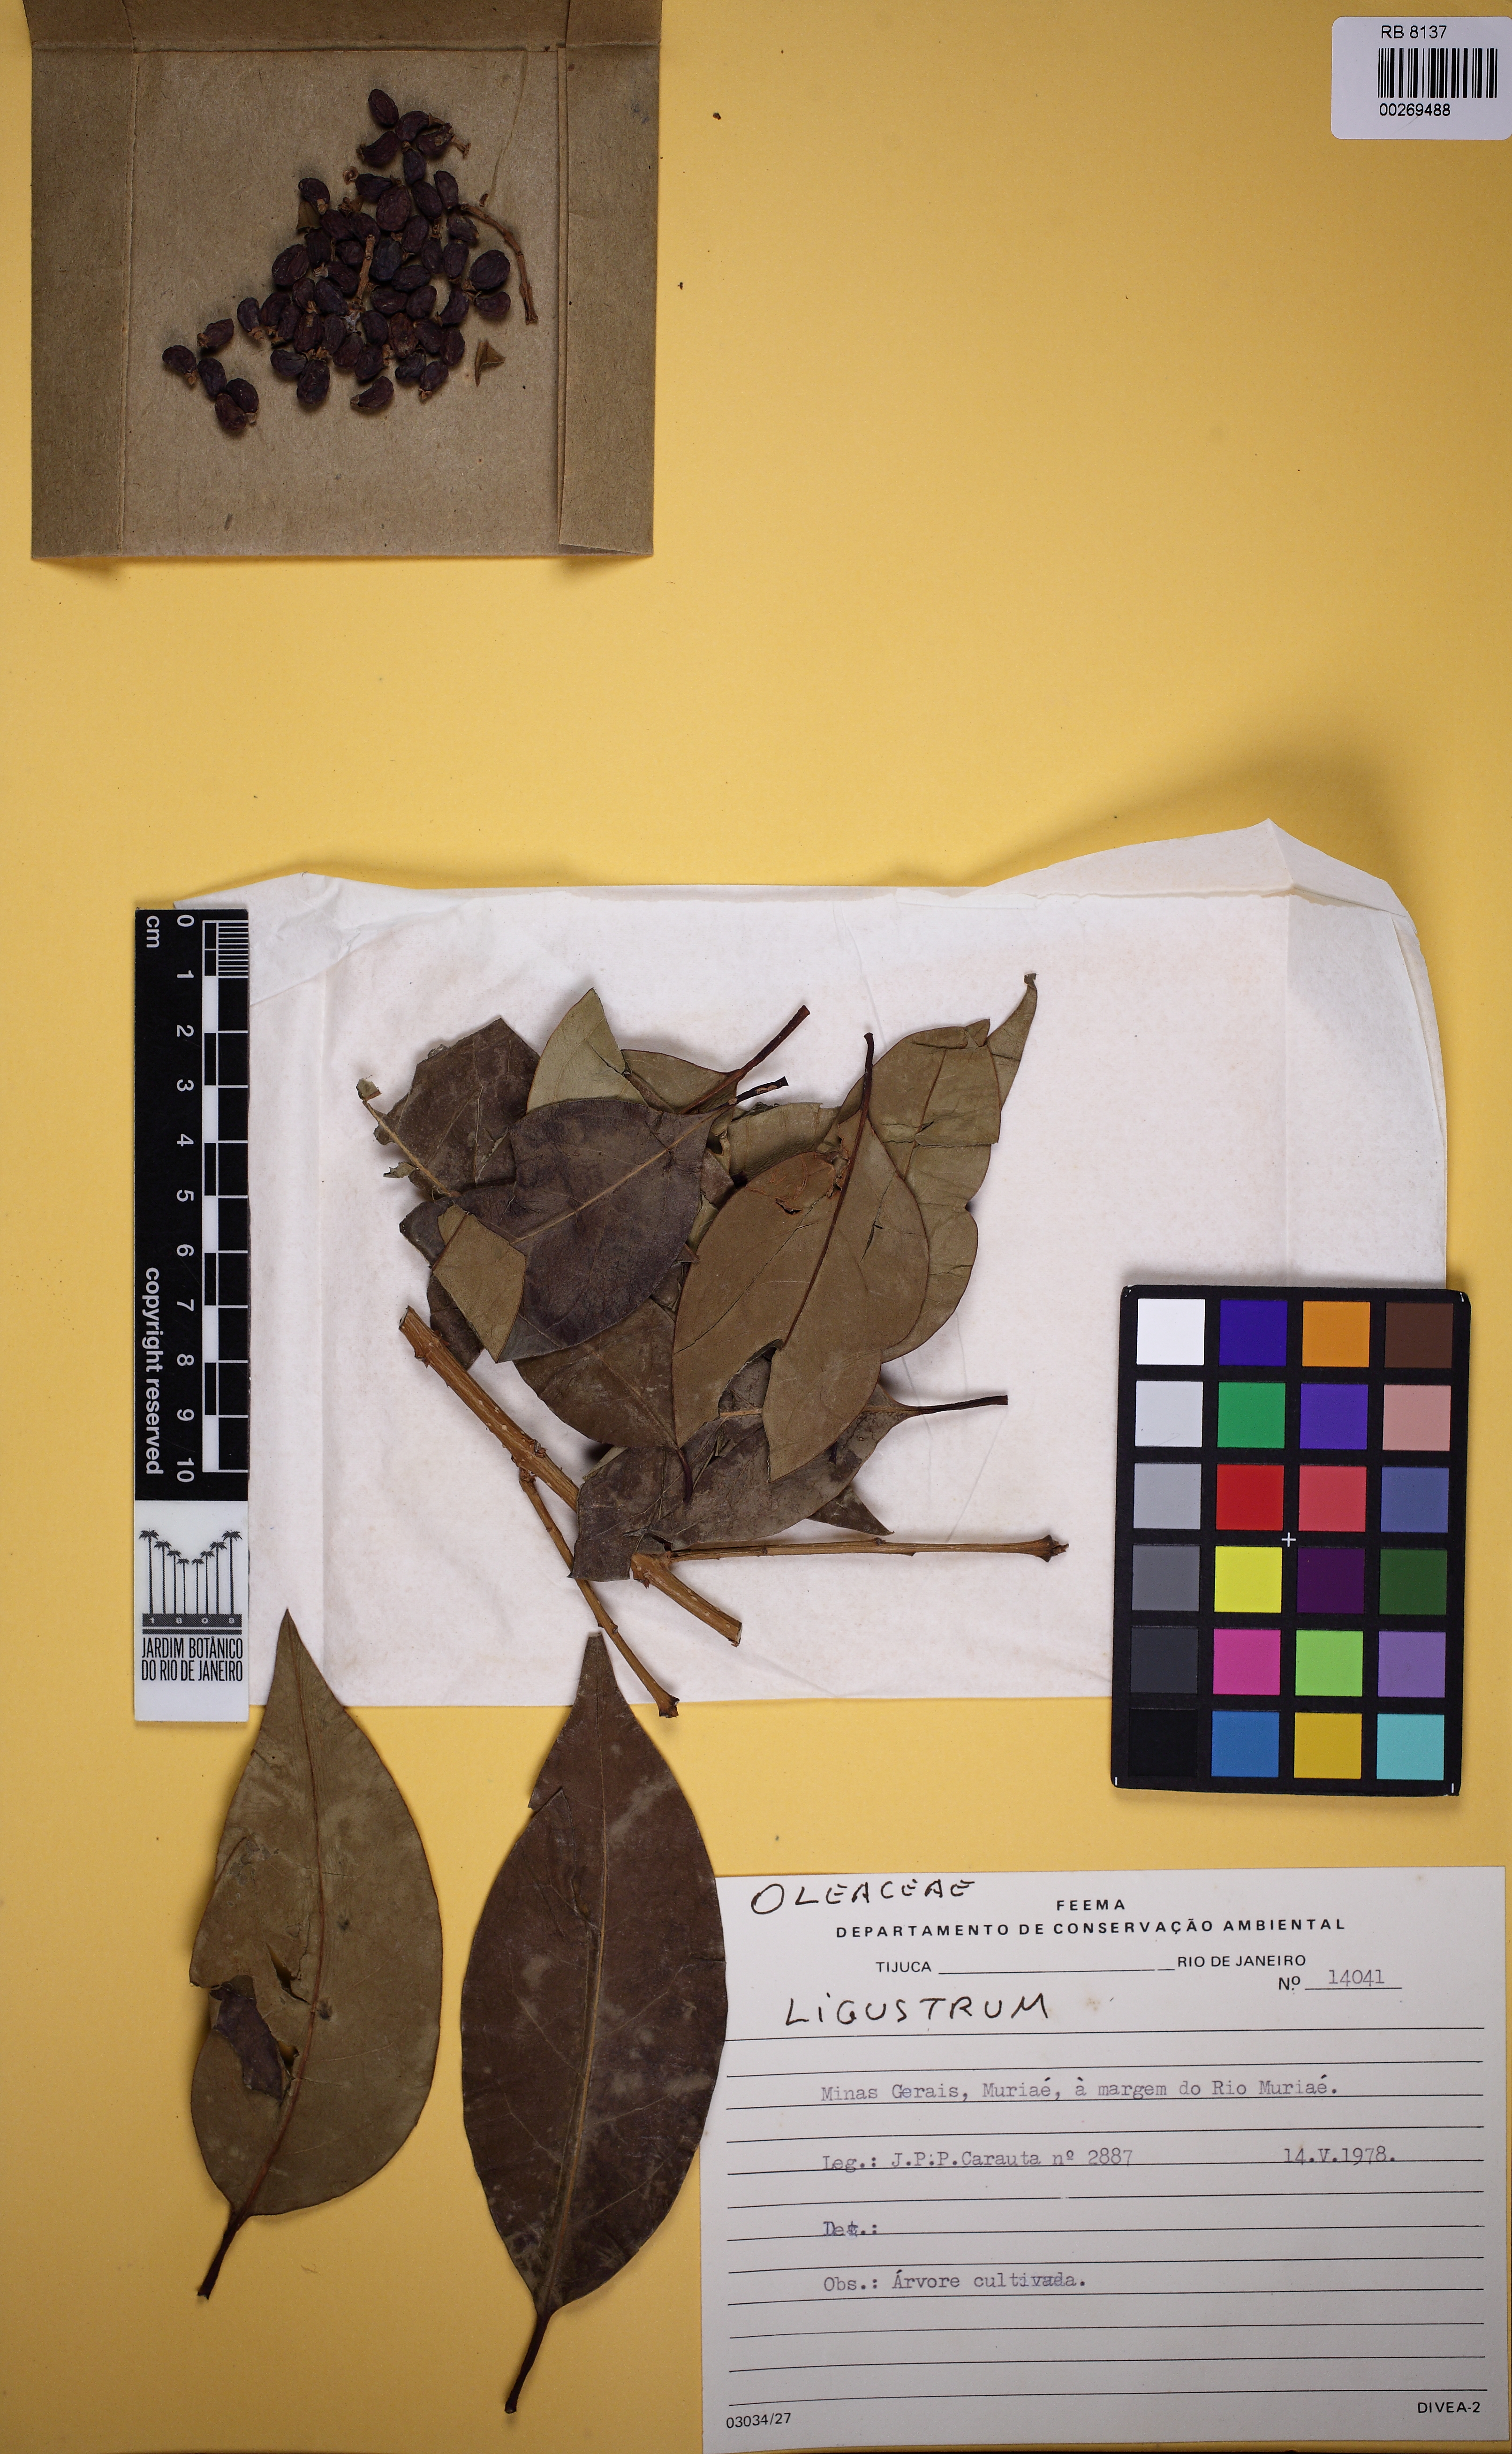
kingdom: Plantae
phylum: Tracheophyta
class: Magnoliopsida
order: Lamiales
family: Oleaceae
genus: Ligustrum
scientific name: Ligustrum
